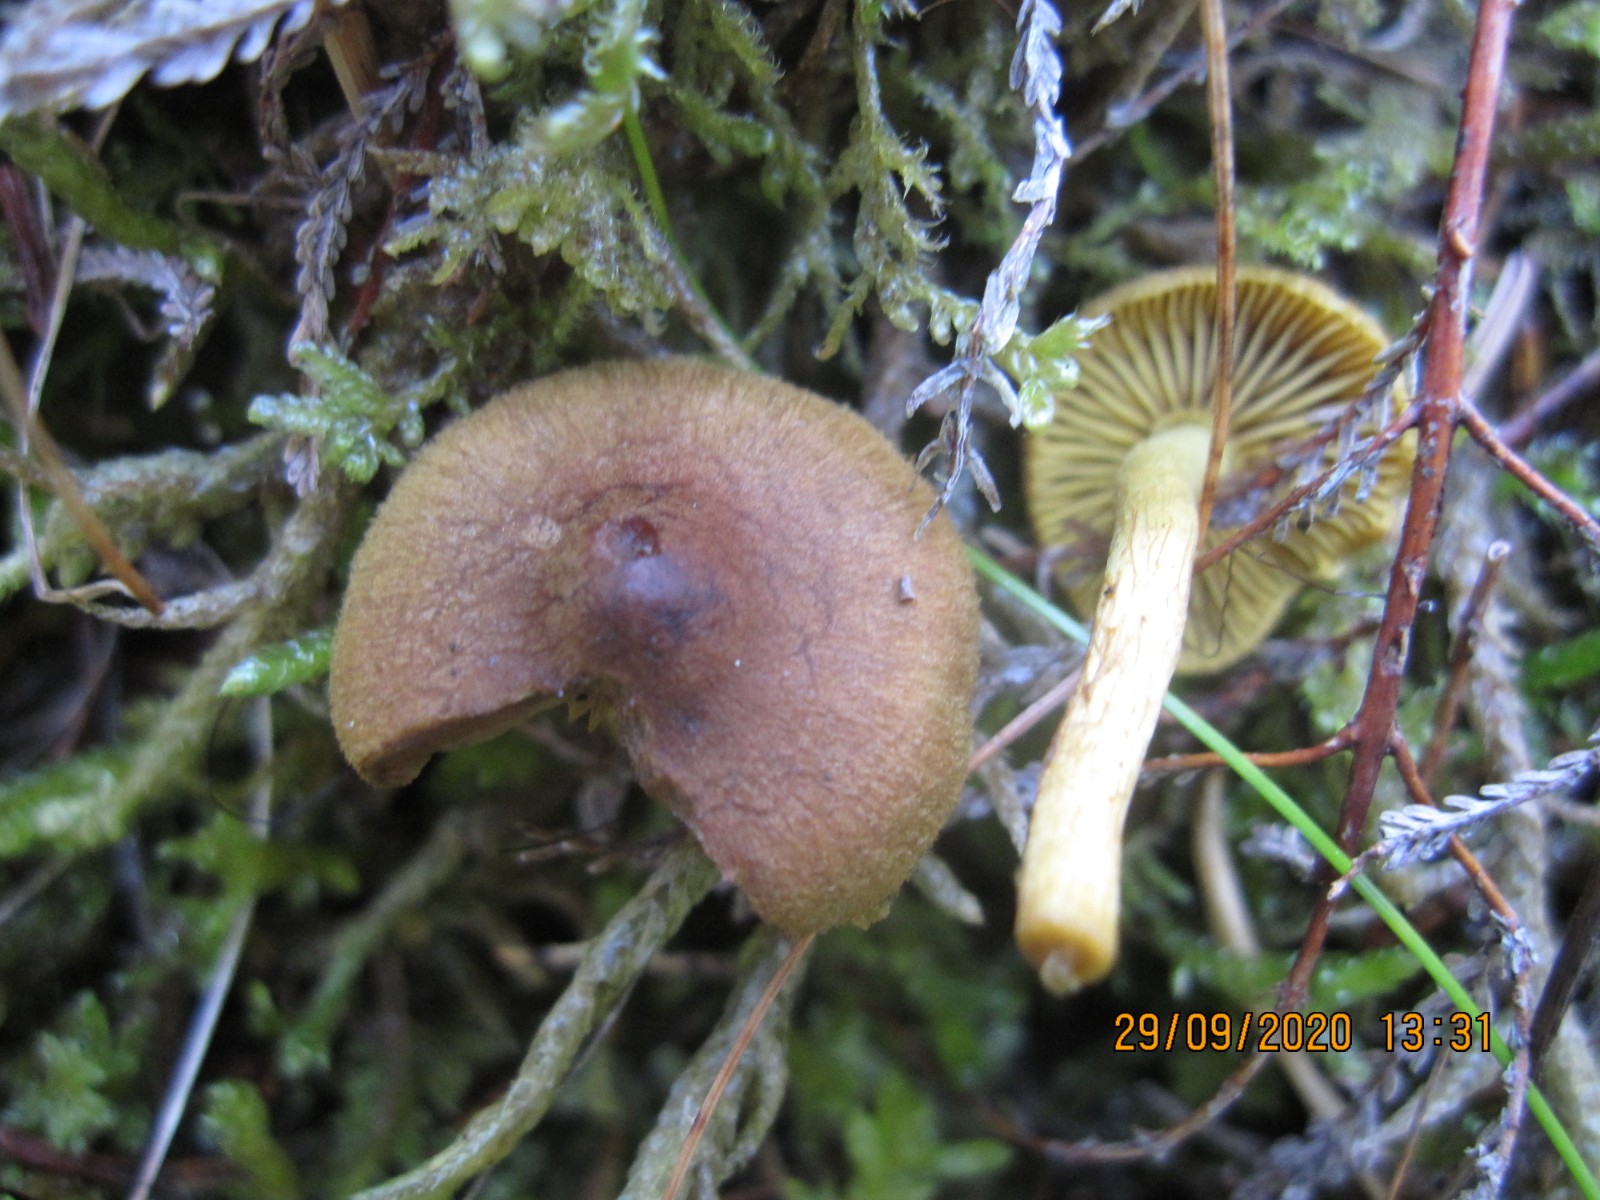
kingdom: Fungi
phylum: Basidiomycota
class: Agaricomycetes
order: Agaricales
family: Cortinariaceae
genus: Cortinarius
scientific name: Cortinarius
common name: gulbladet slørhat
